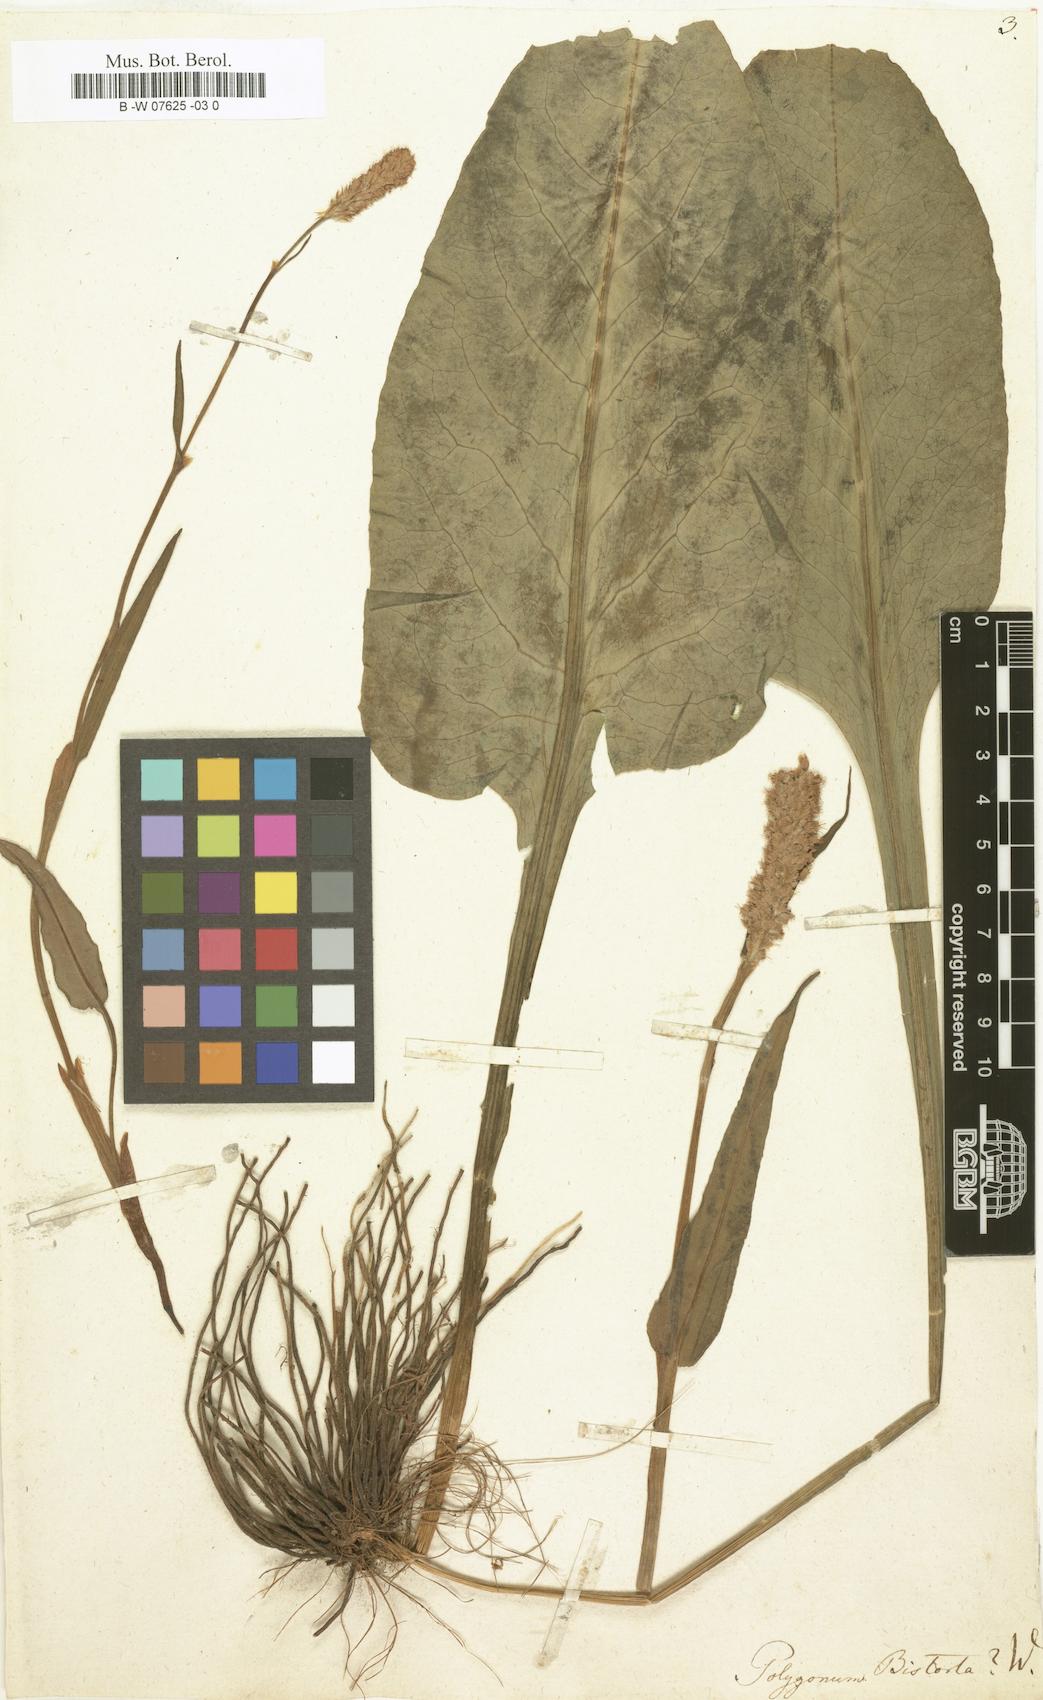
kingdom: Plantae
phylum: Tracheophyta
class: Magnoliopsida
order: Caryophyllales
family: Polygonaceae
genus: Polygonum
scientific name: Polygonum bistorta
